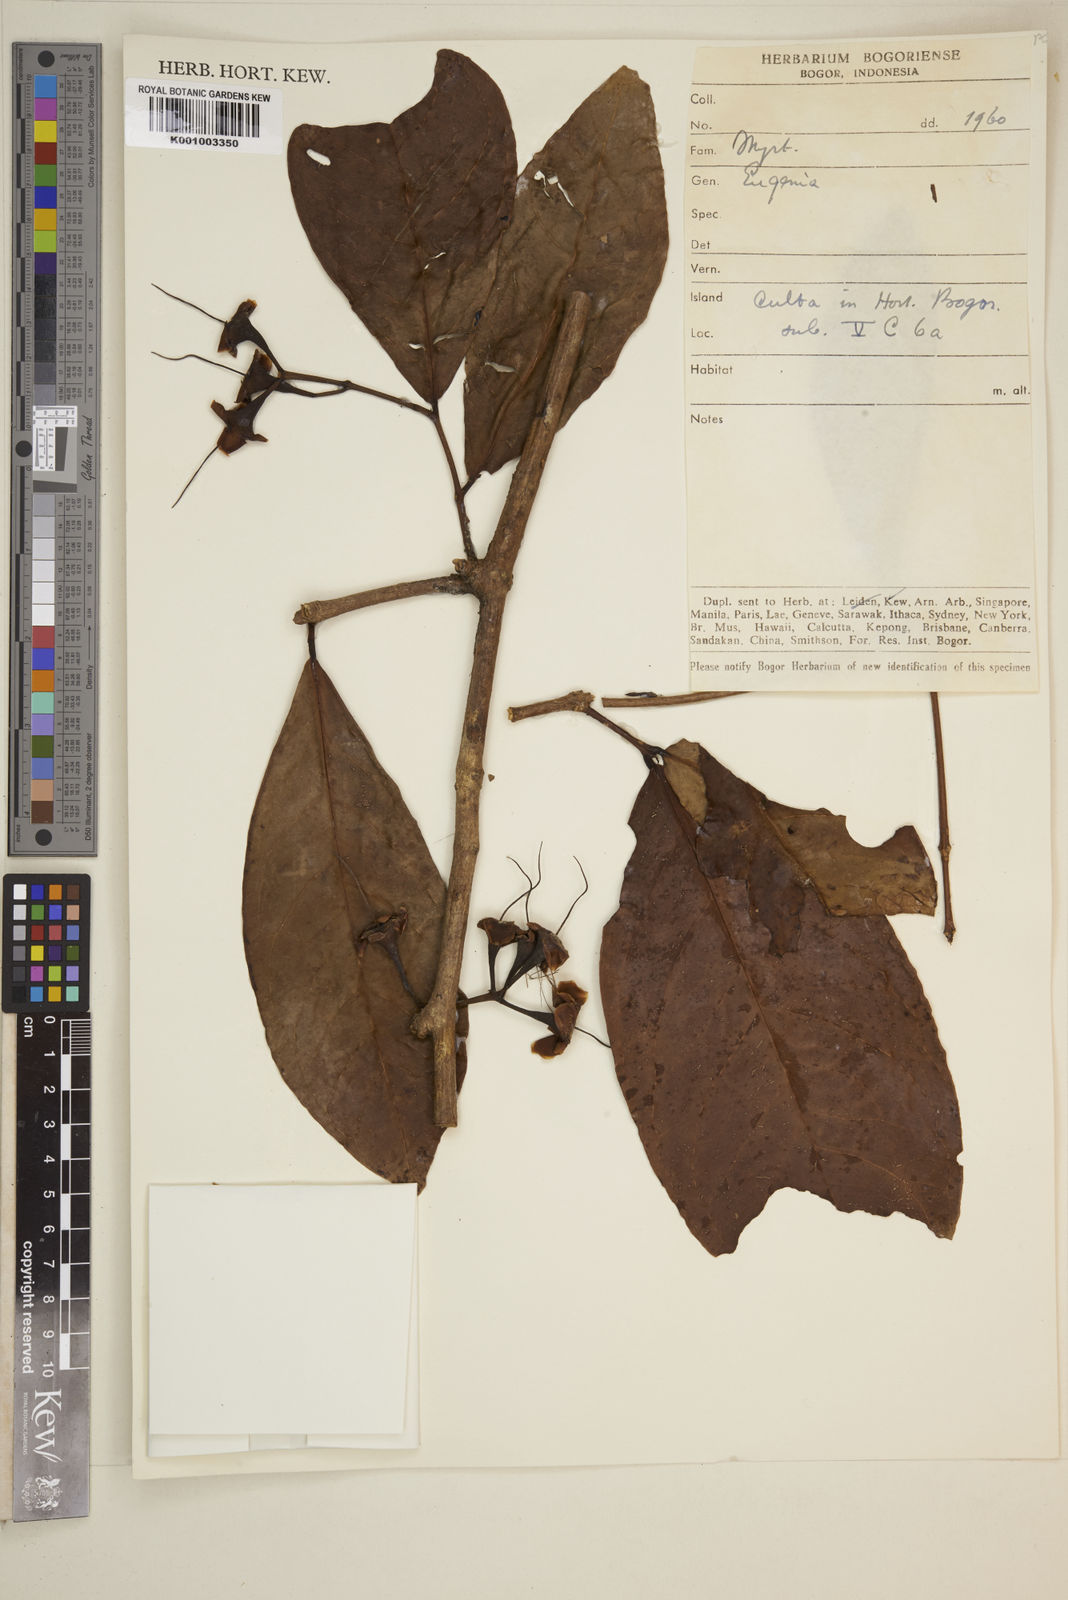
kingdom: Plantae
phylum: Tracheophyta
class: Magnoliopsida
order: Myrtales
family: Myrtaceae
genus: Eugenia
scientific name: Eugenia
